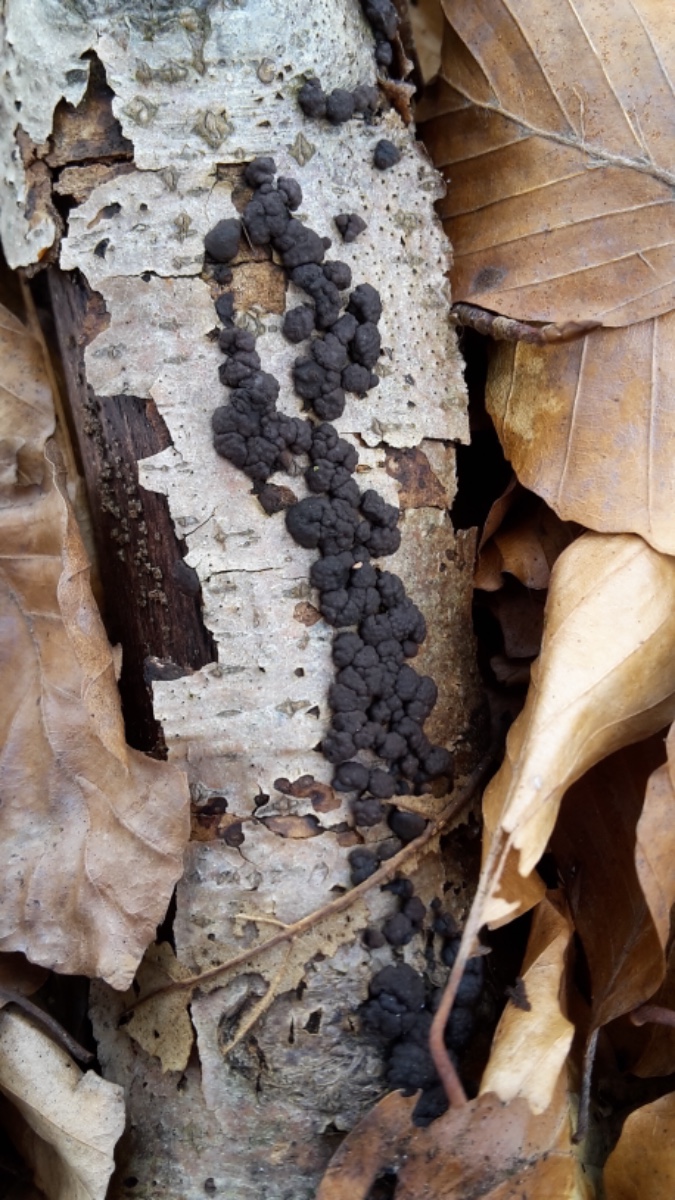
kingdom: Fungi
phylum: Ascomycota
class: Sordariomycetes
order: Xylariales
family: Hypoxylaceae
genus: Jackrogersella
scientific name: Jackrogersella cohaerens
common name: sammenflydende kulbær
